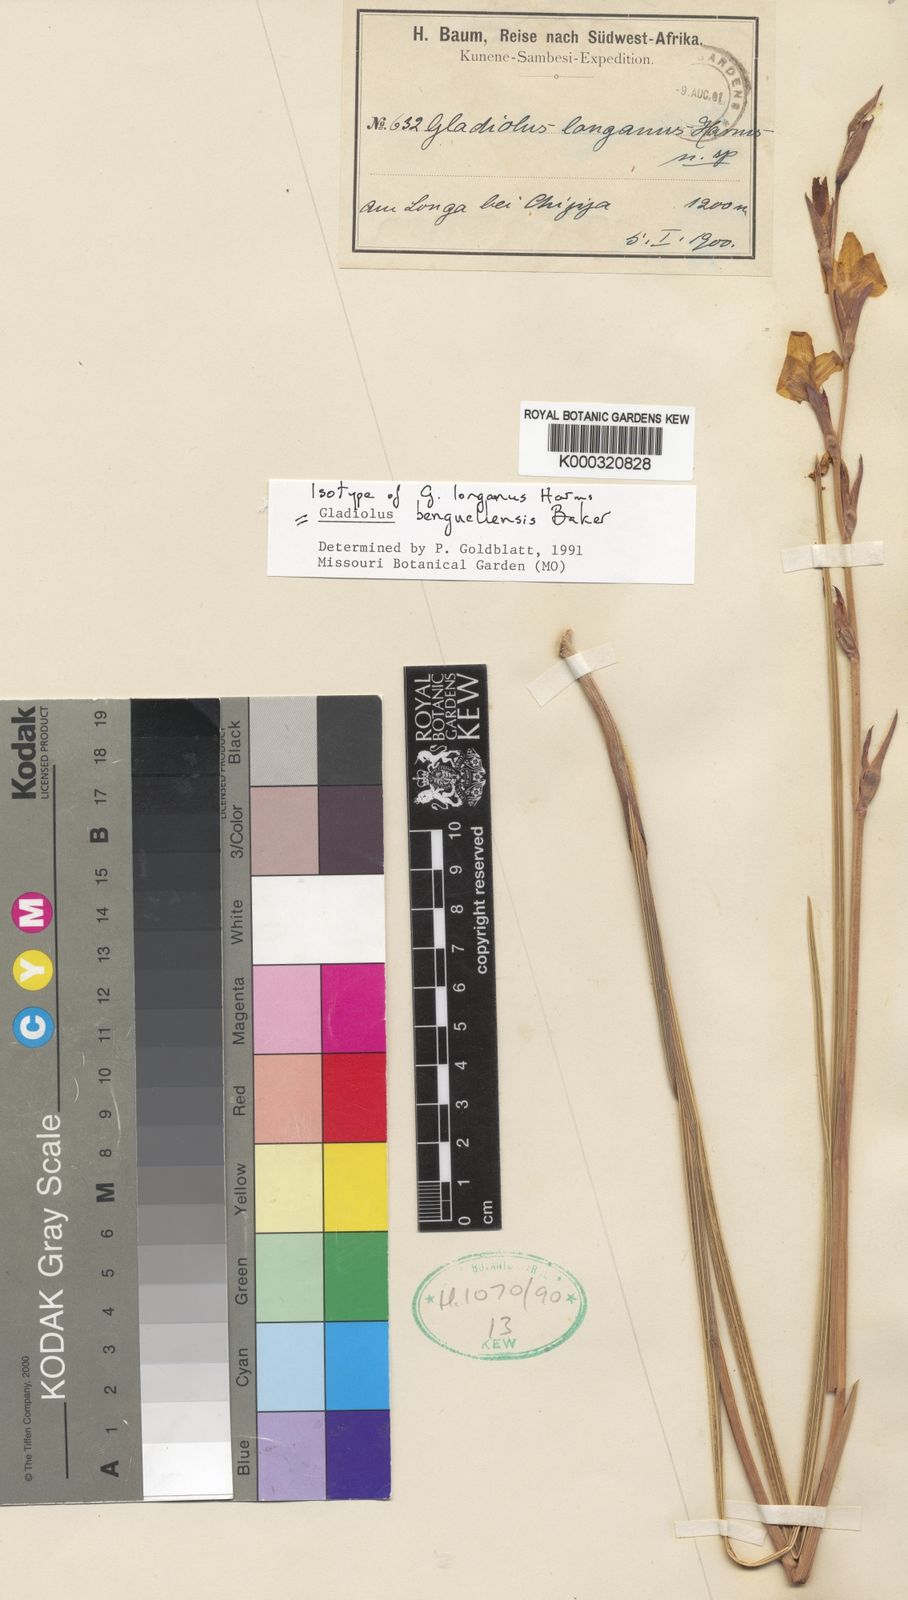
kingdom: Plantae
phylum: Tracheophyta
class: Liliopsida
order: Asparagales
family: Iridaceae
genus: Gladiolus
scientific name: Gladiolus benguellensis
